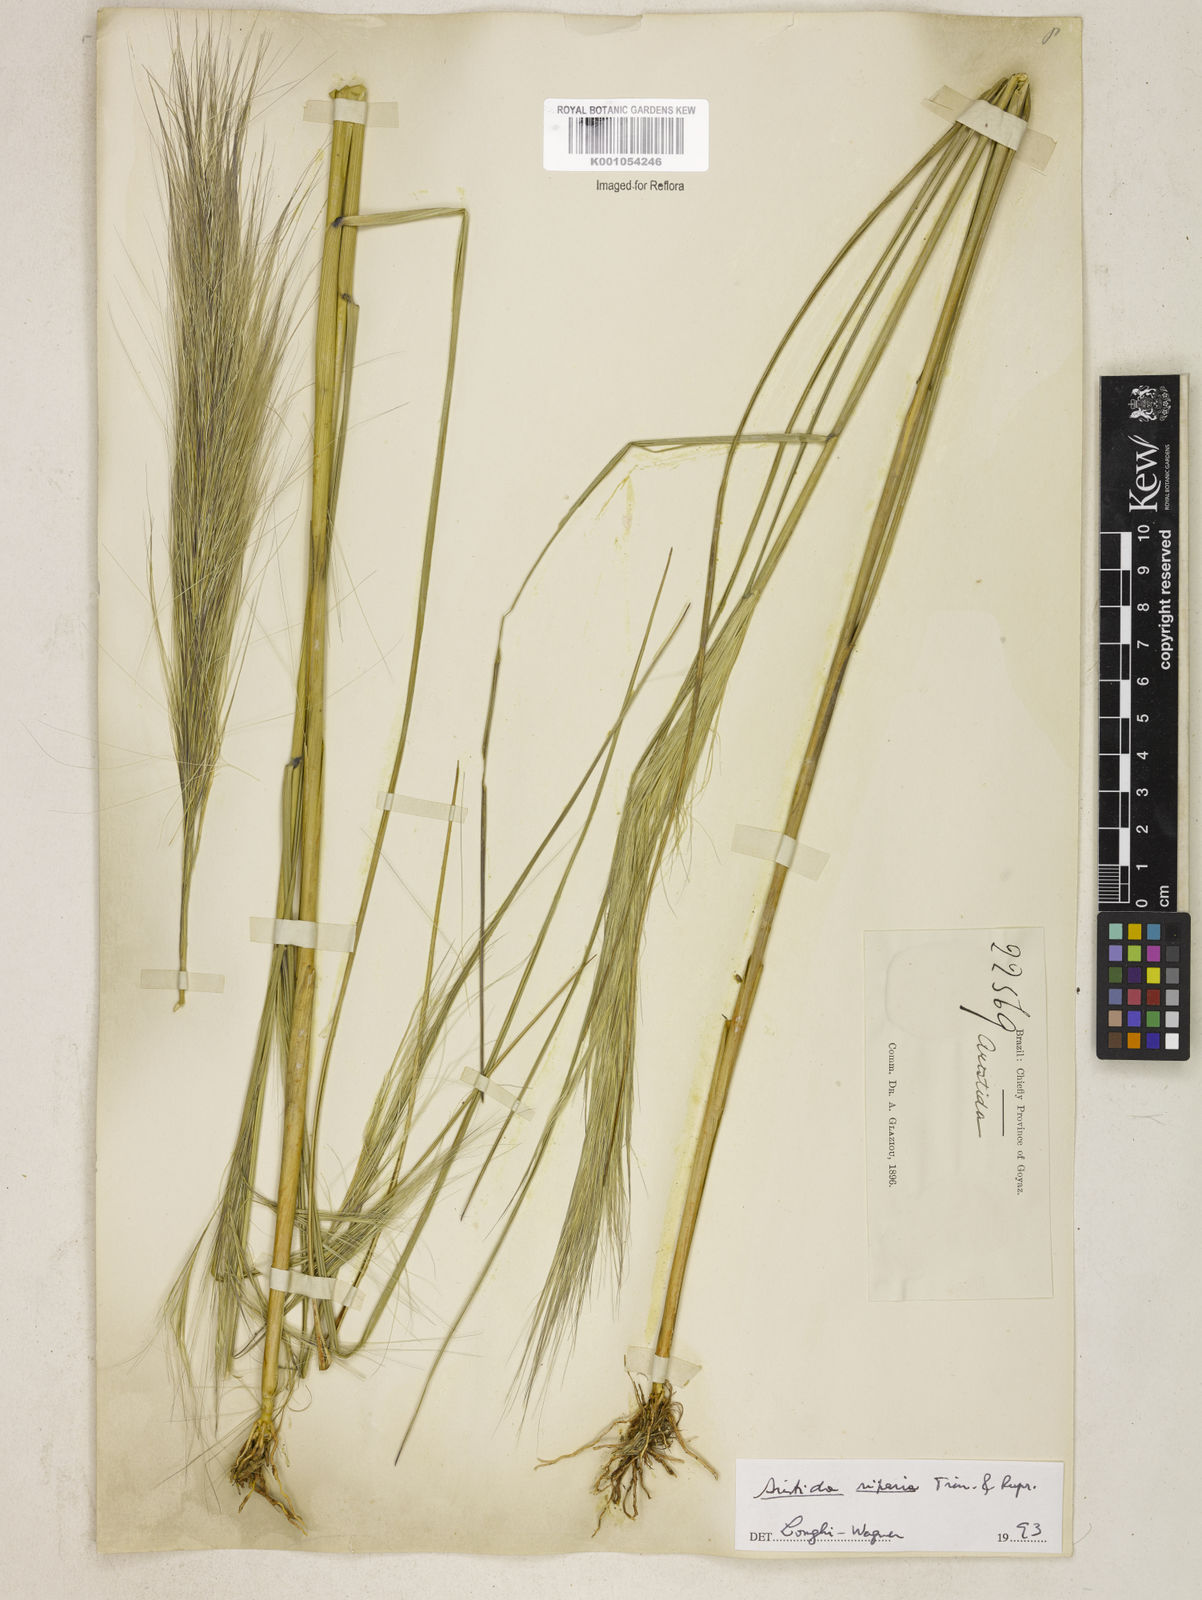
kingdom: Plantae
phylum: Tracheophyta
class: Liliopsida
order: Poales
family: Poaceae
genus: Aristida
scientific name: Aristida riparia
